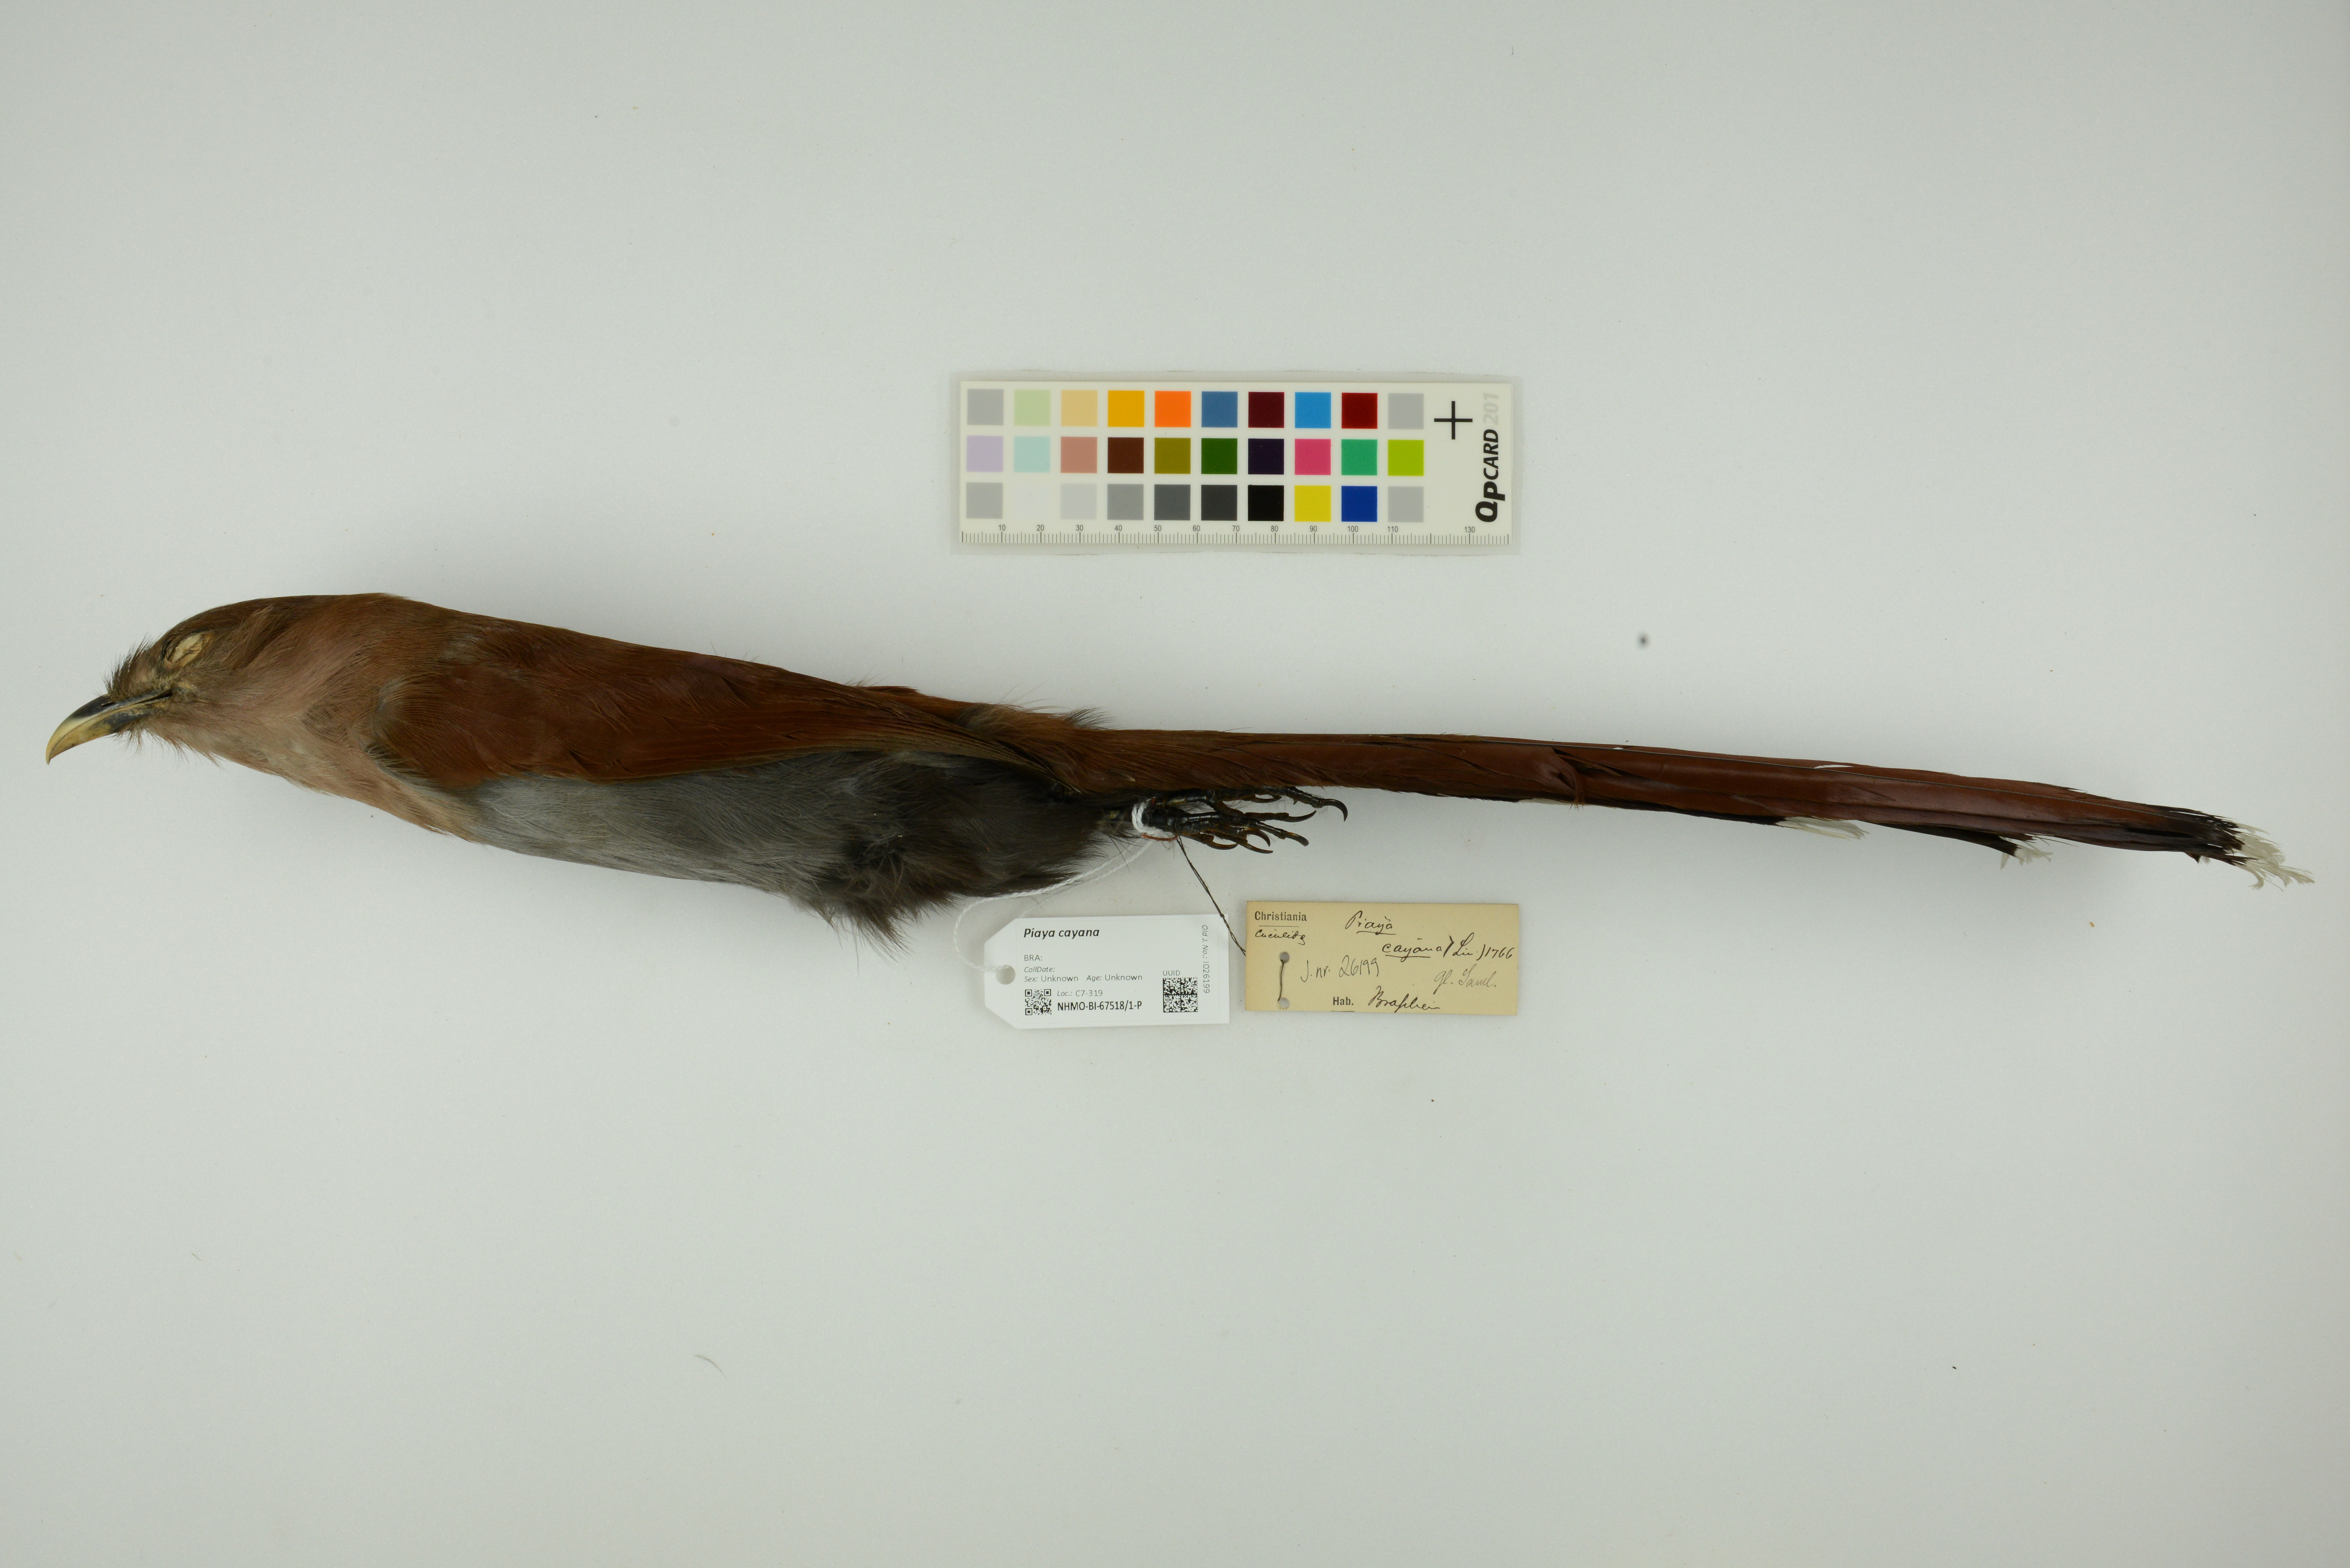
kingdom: Animalia
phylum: Chordata
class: Aves
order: Cuculiformes
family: Cuculidae
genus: Piaya
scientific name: Piaya cayana
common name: Squirrel cuckoo
